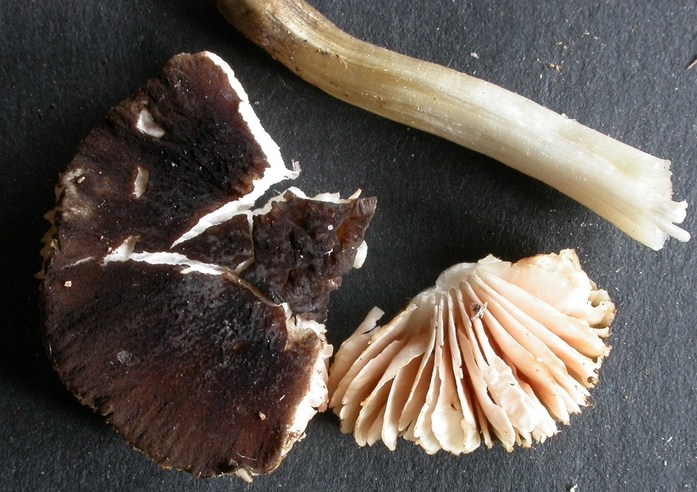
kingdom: Fungi
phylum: Basidiomycota
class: Agaricomycetes
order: Agaricales
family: Pluteaceae
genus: Pluteus
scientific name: Pluteus podospileus
